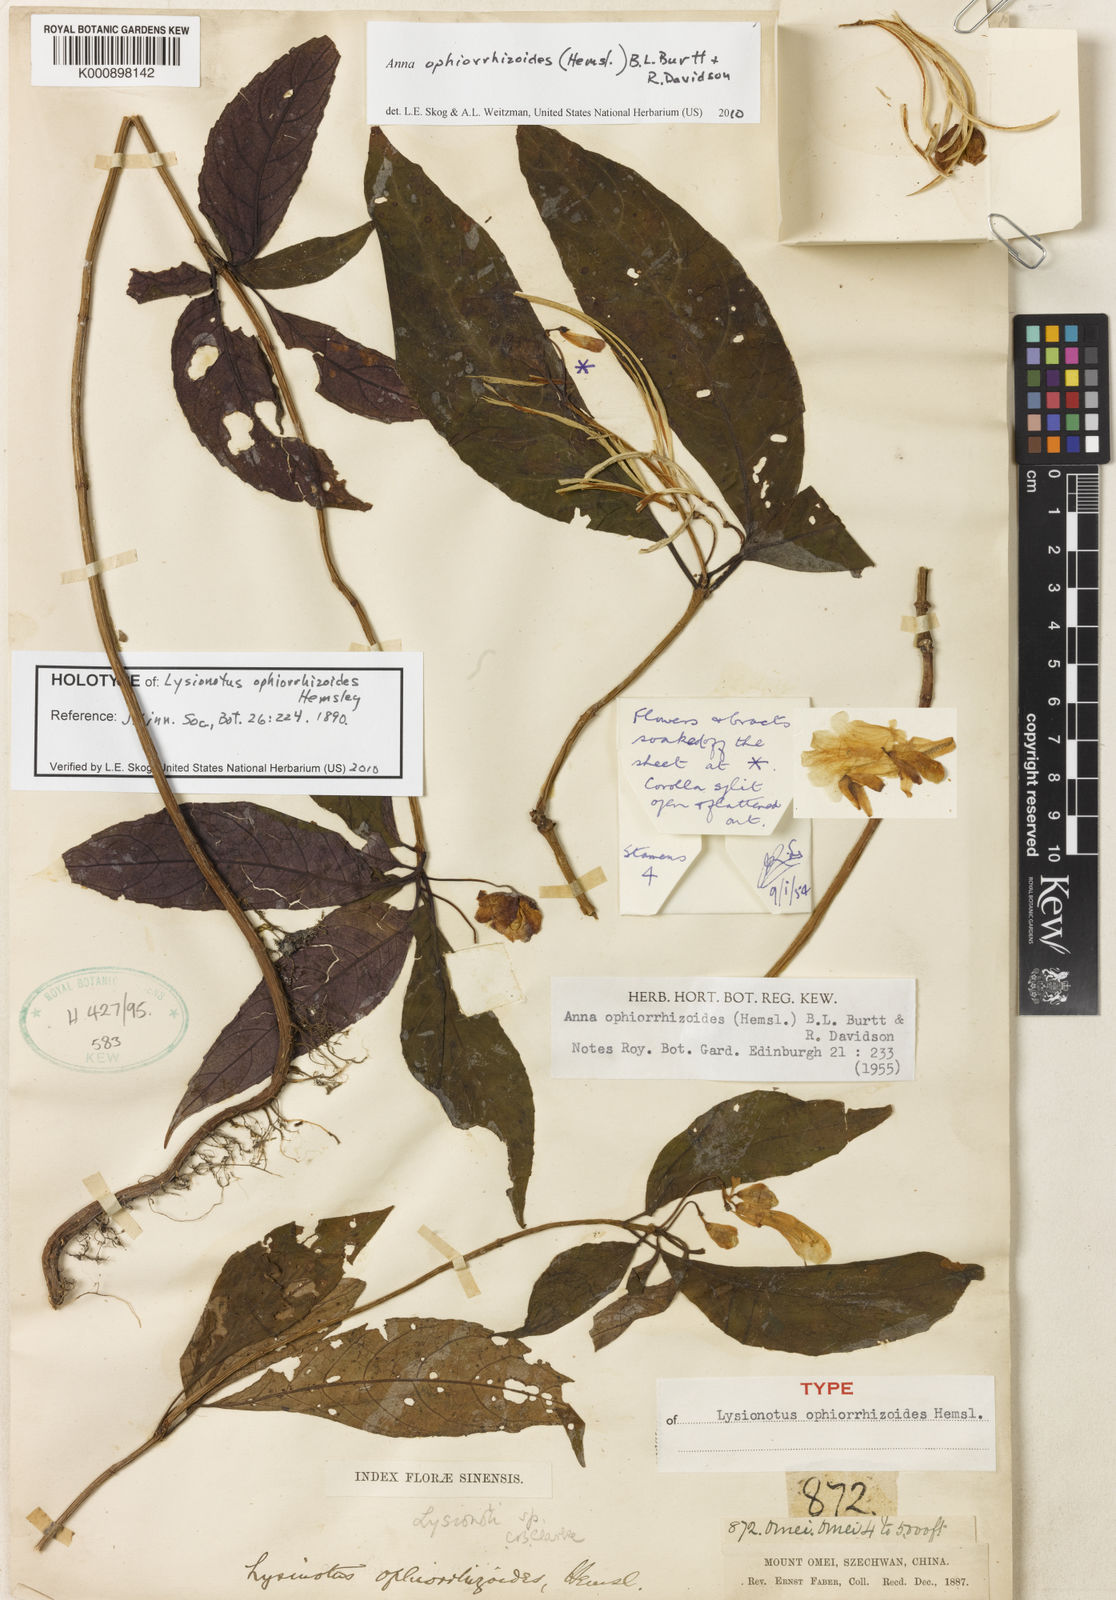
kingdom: Plantae
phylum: Tracheophyta
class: Magnoliopsida
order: Lamiales
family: Gesneriaceae
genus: Anna
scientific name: Anna ophiorrhizoides
